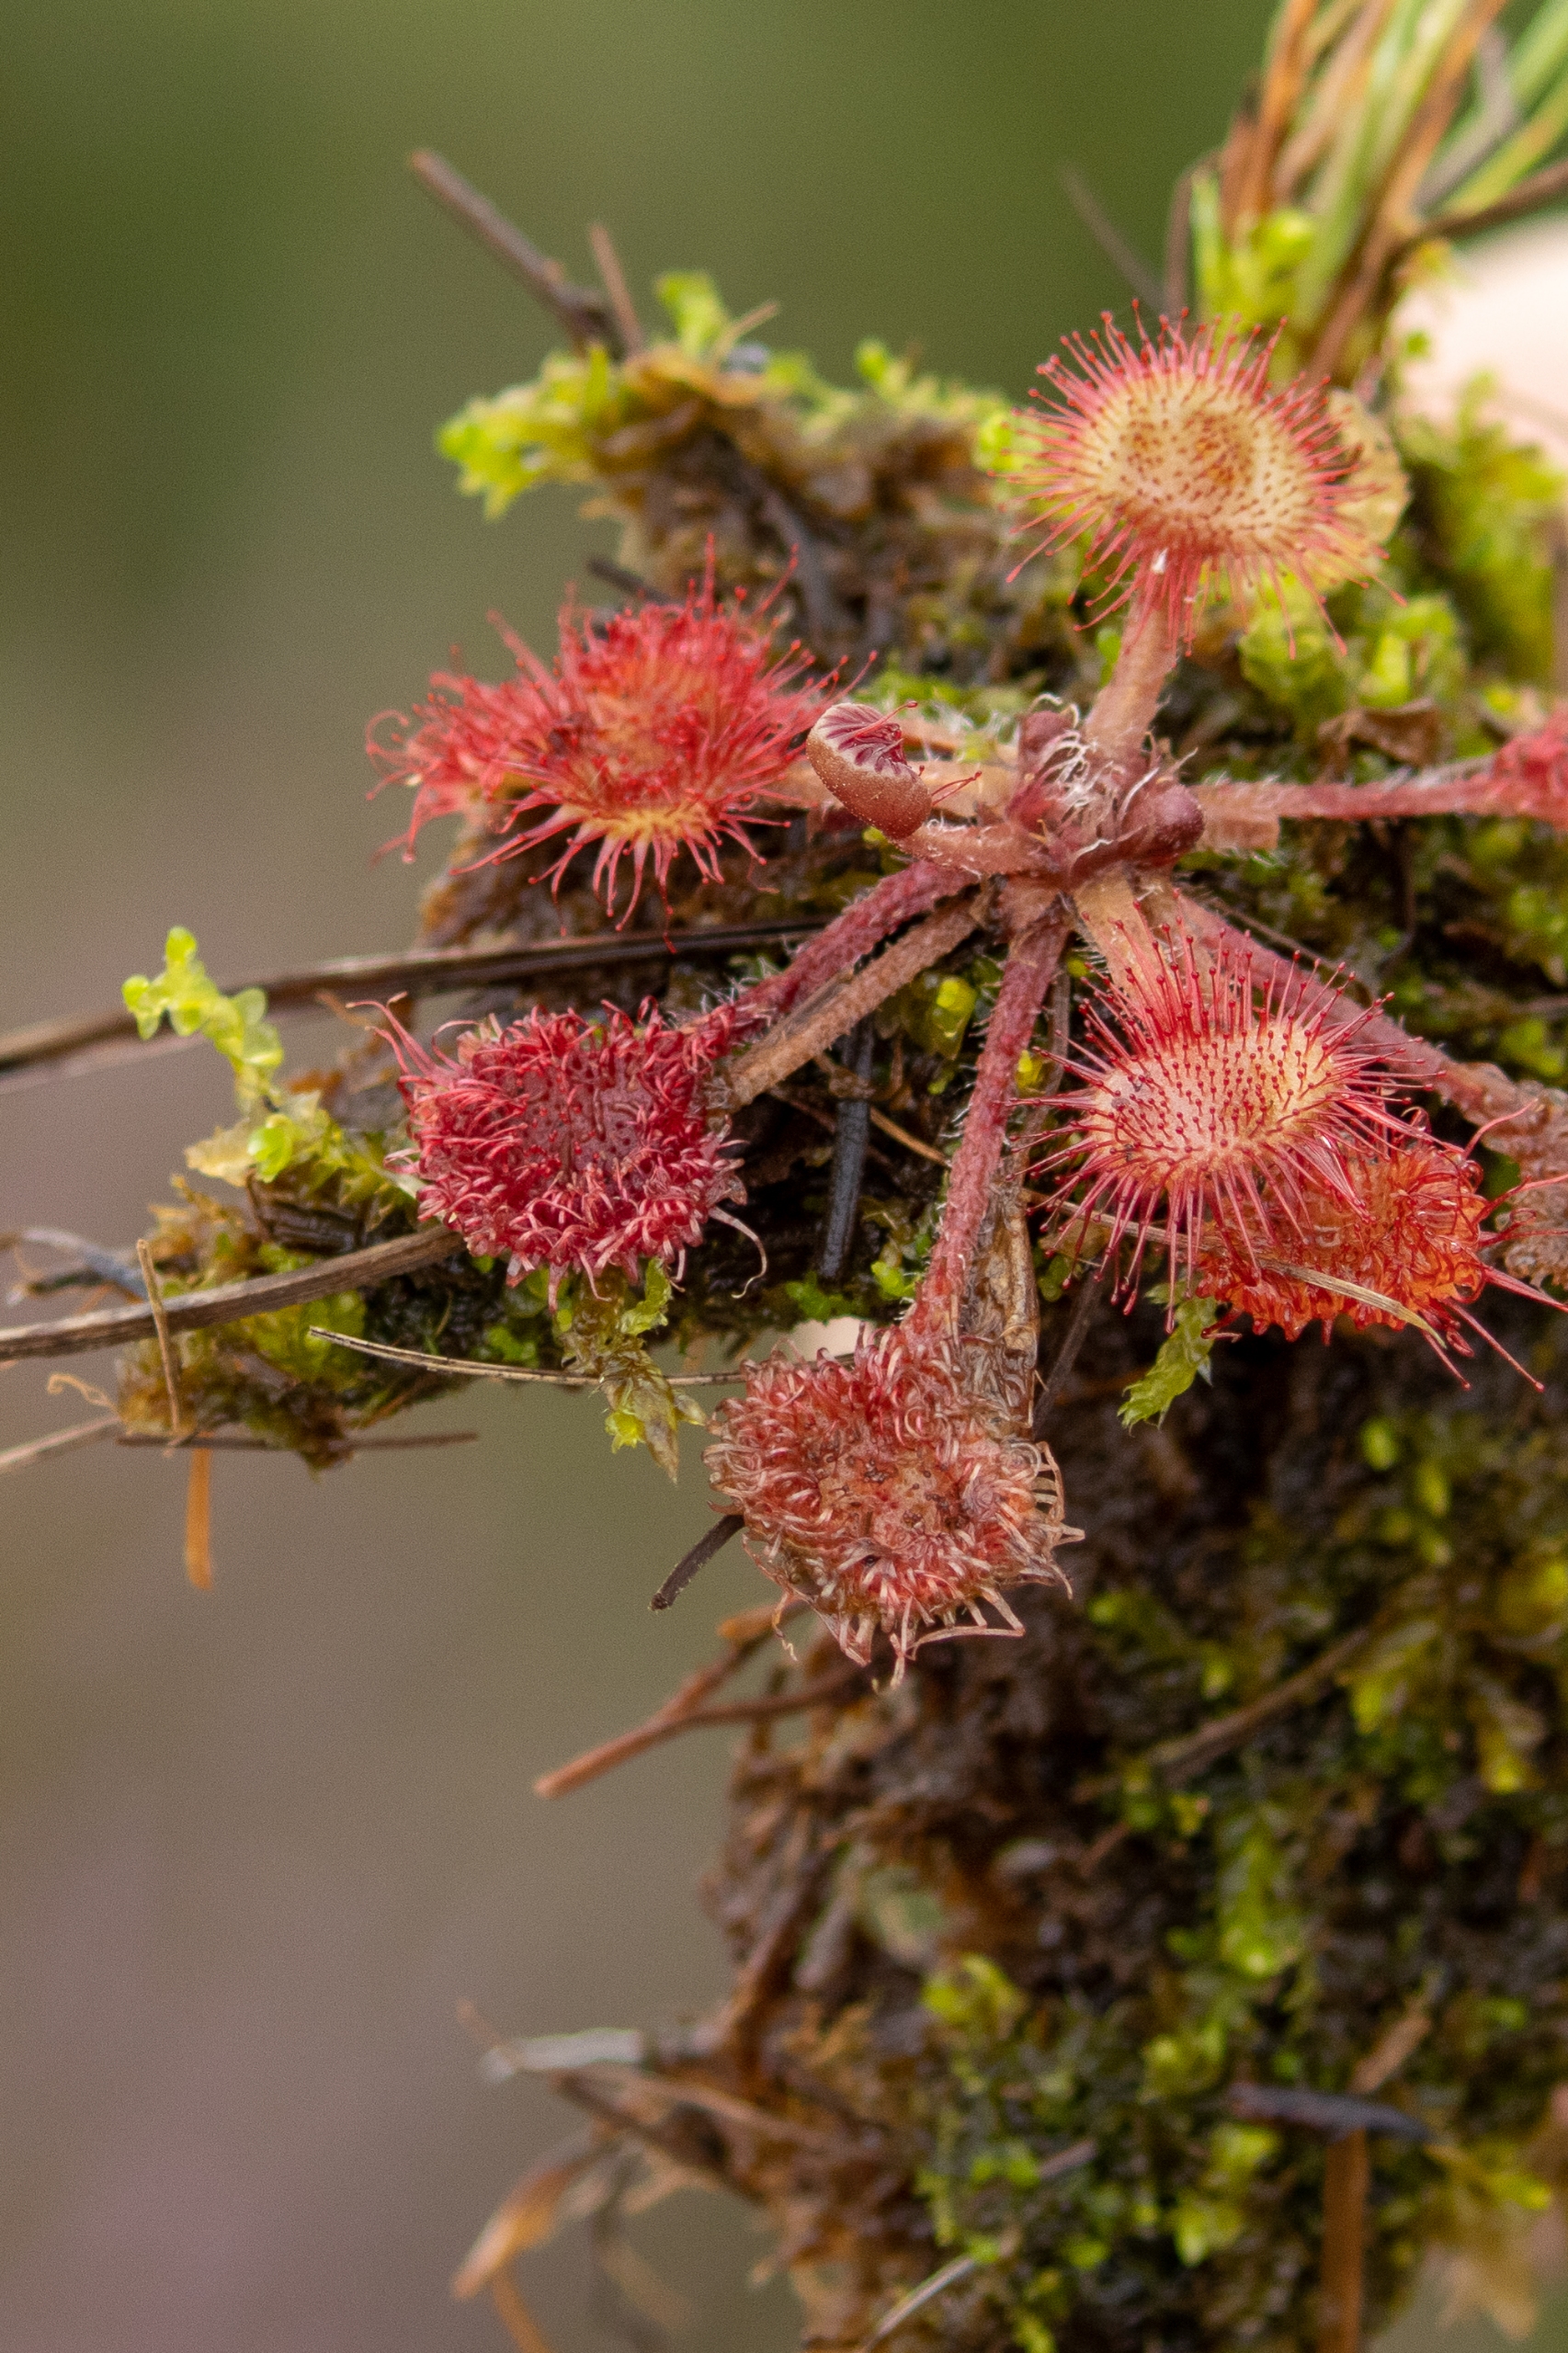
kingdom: Plantae
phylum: Tracheophyta
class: Magnoliopsida
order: Caryophyllales
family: Droseraceae
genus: Drosera
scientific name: Drosera rotundifolia
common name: Rundbladet soldug
